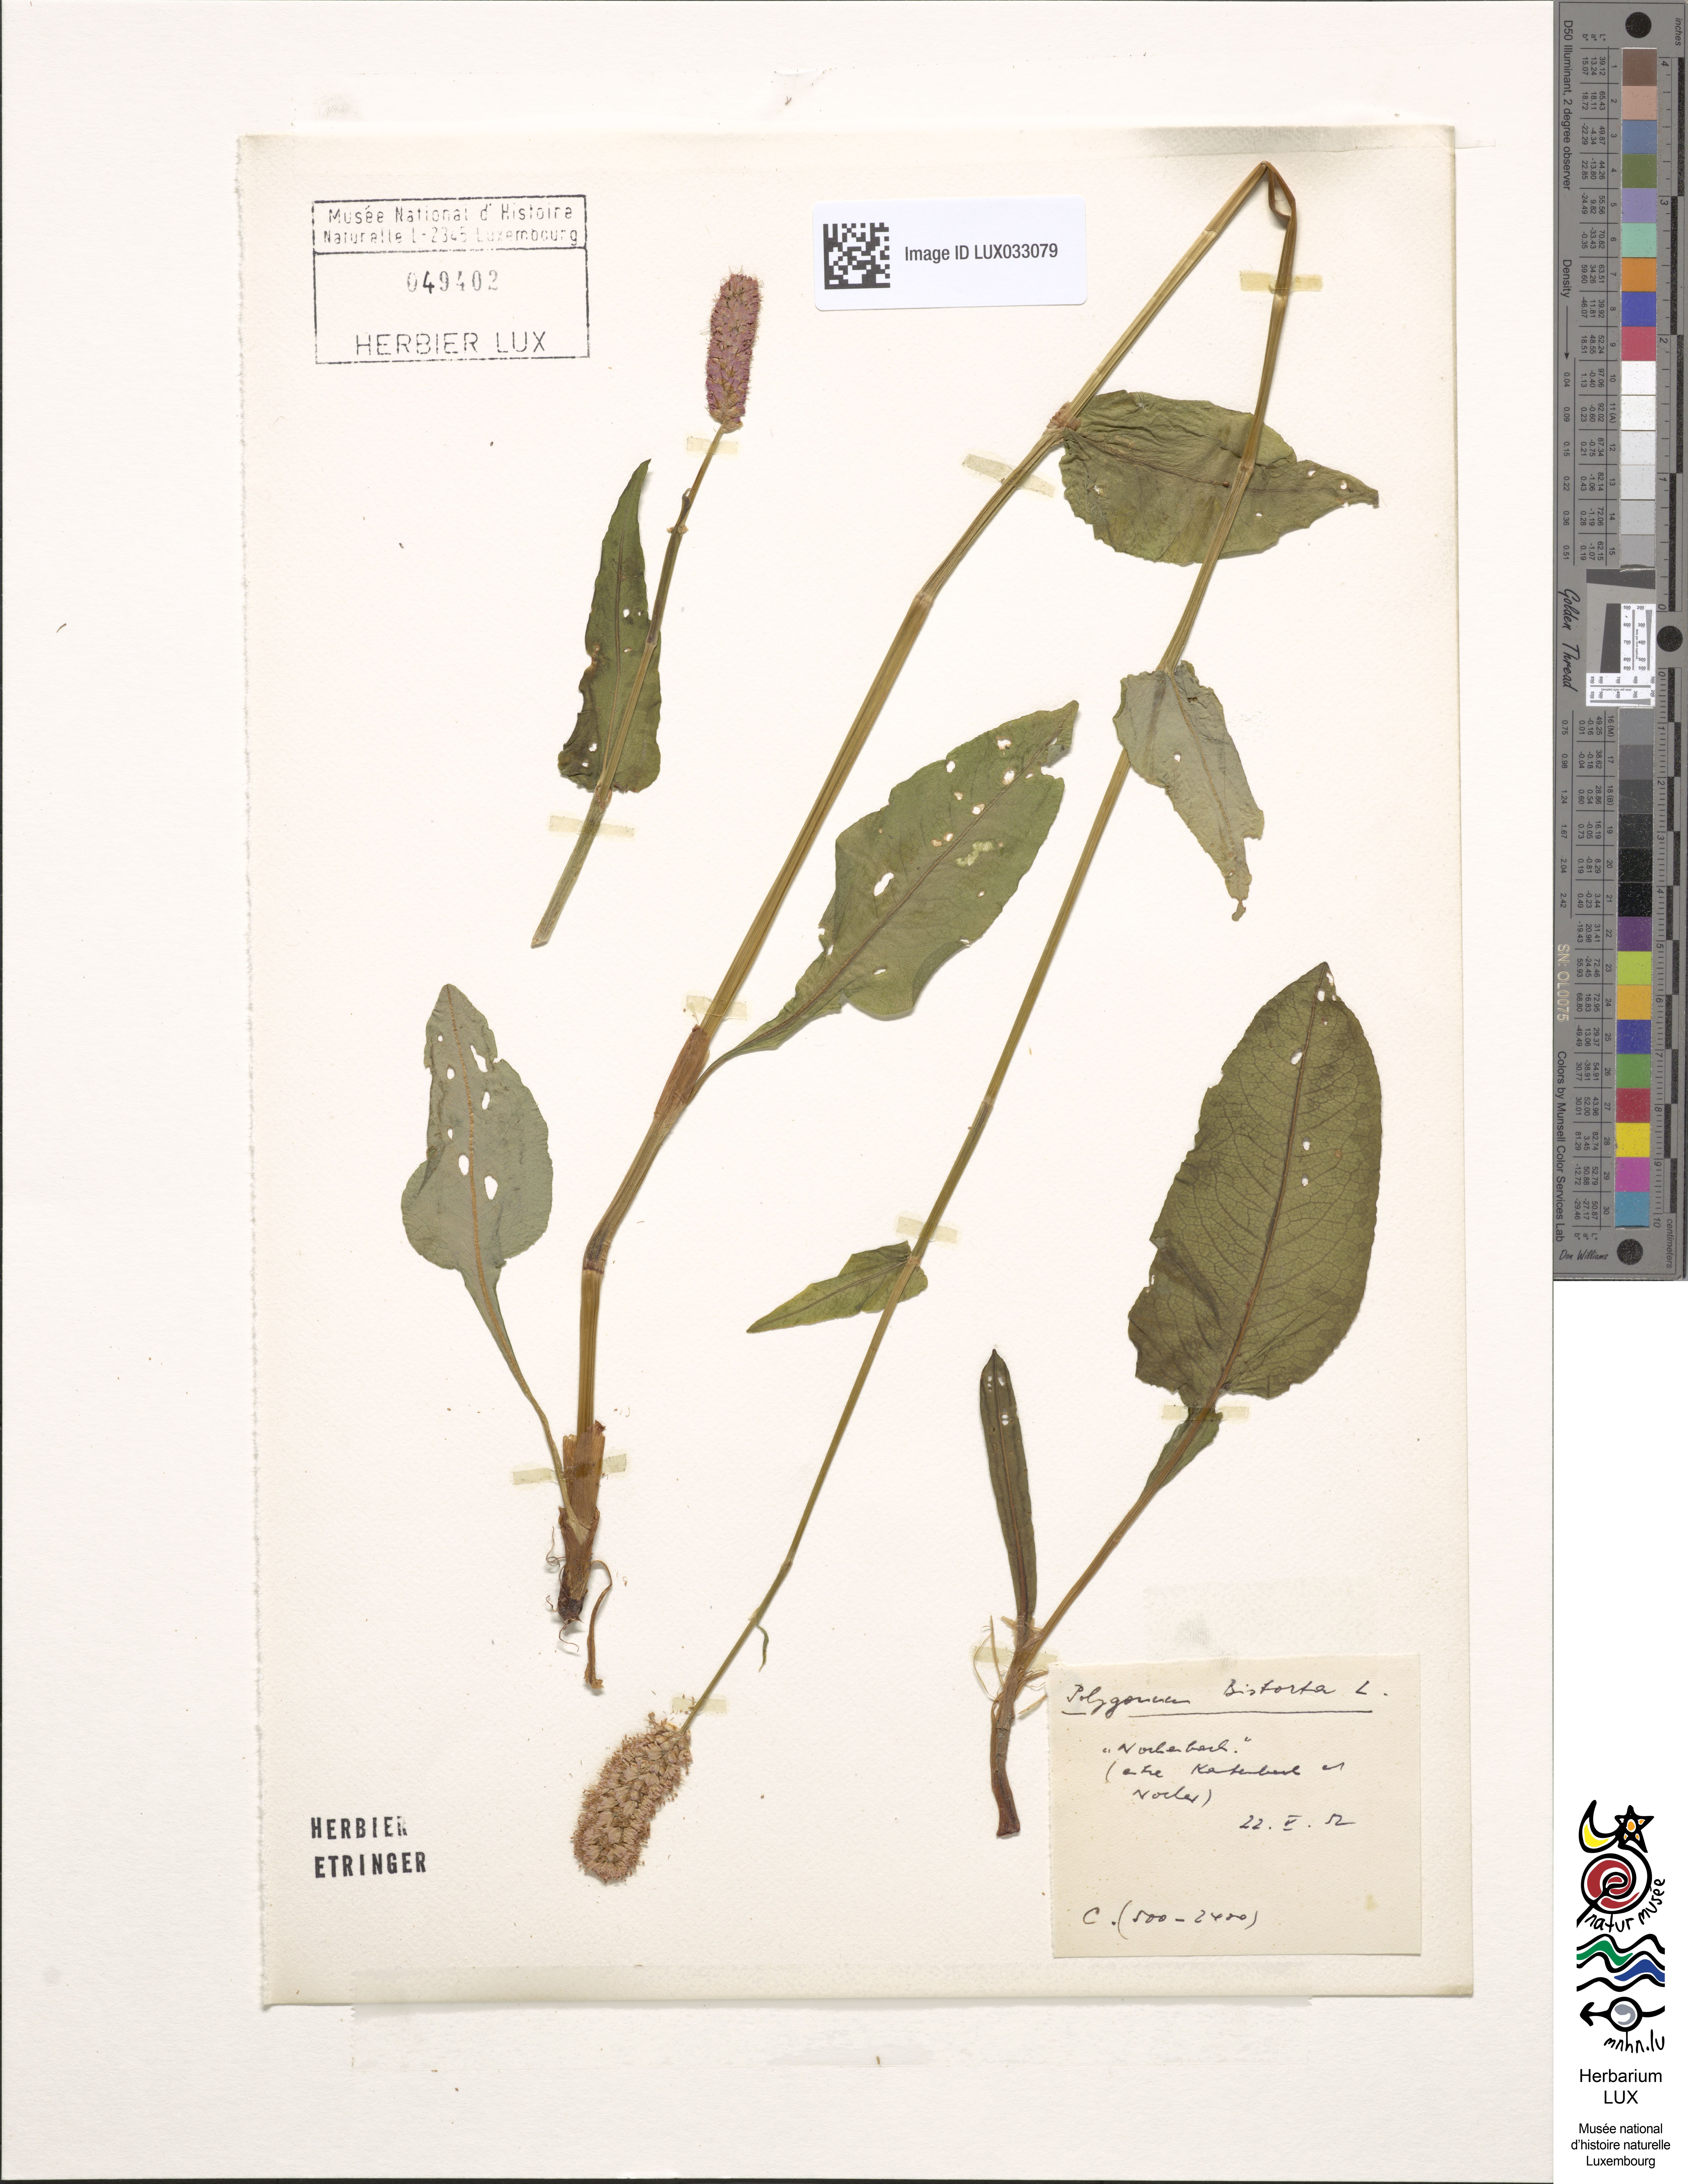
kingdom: Plantae
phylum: Tracheophyta
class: Magnoliopsida
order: Caryophyllales
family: Polygonaceae
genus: Bistorta
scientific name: Bistorta officinalis
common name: Common bistort
